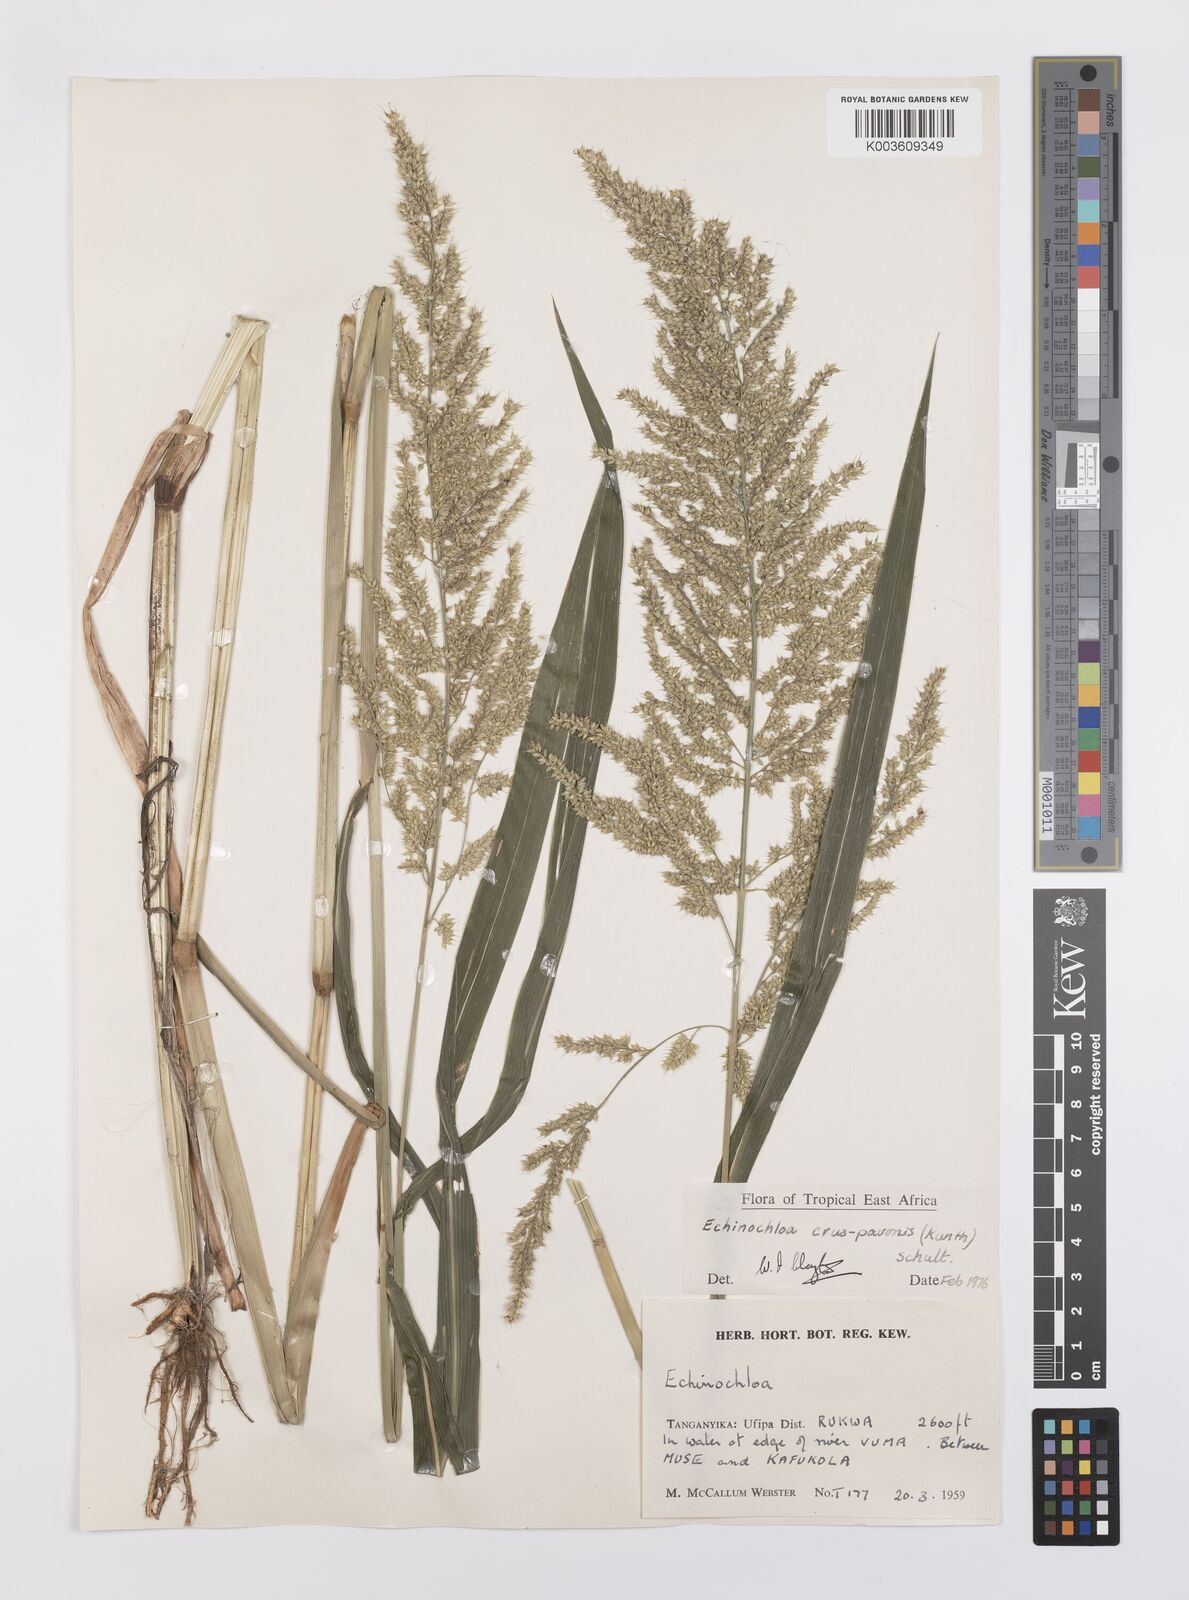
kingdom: Plantae
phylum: Tracheophyta
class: Liliopsida
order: Poales
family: Poaceae
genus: Echinochloa
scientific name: Echinochloa crus-pavonis
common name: Gulf cockspur grass
